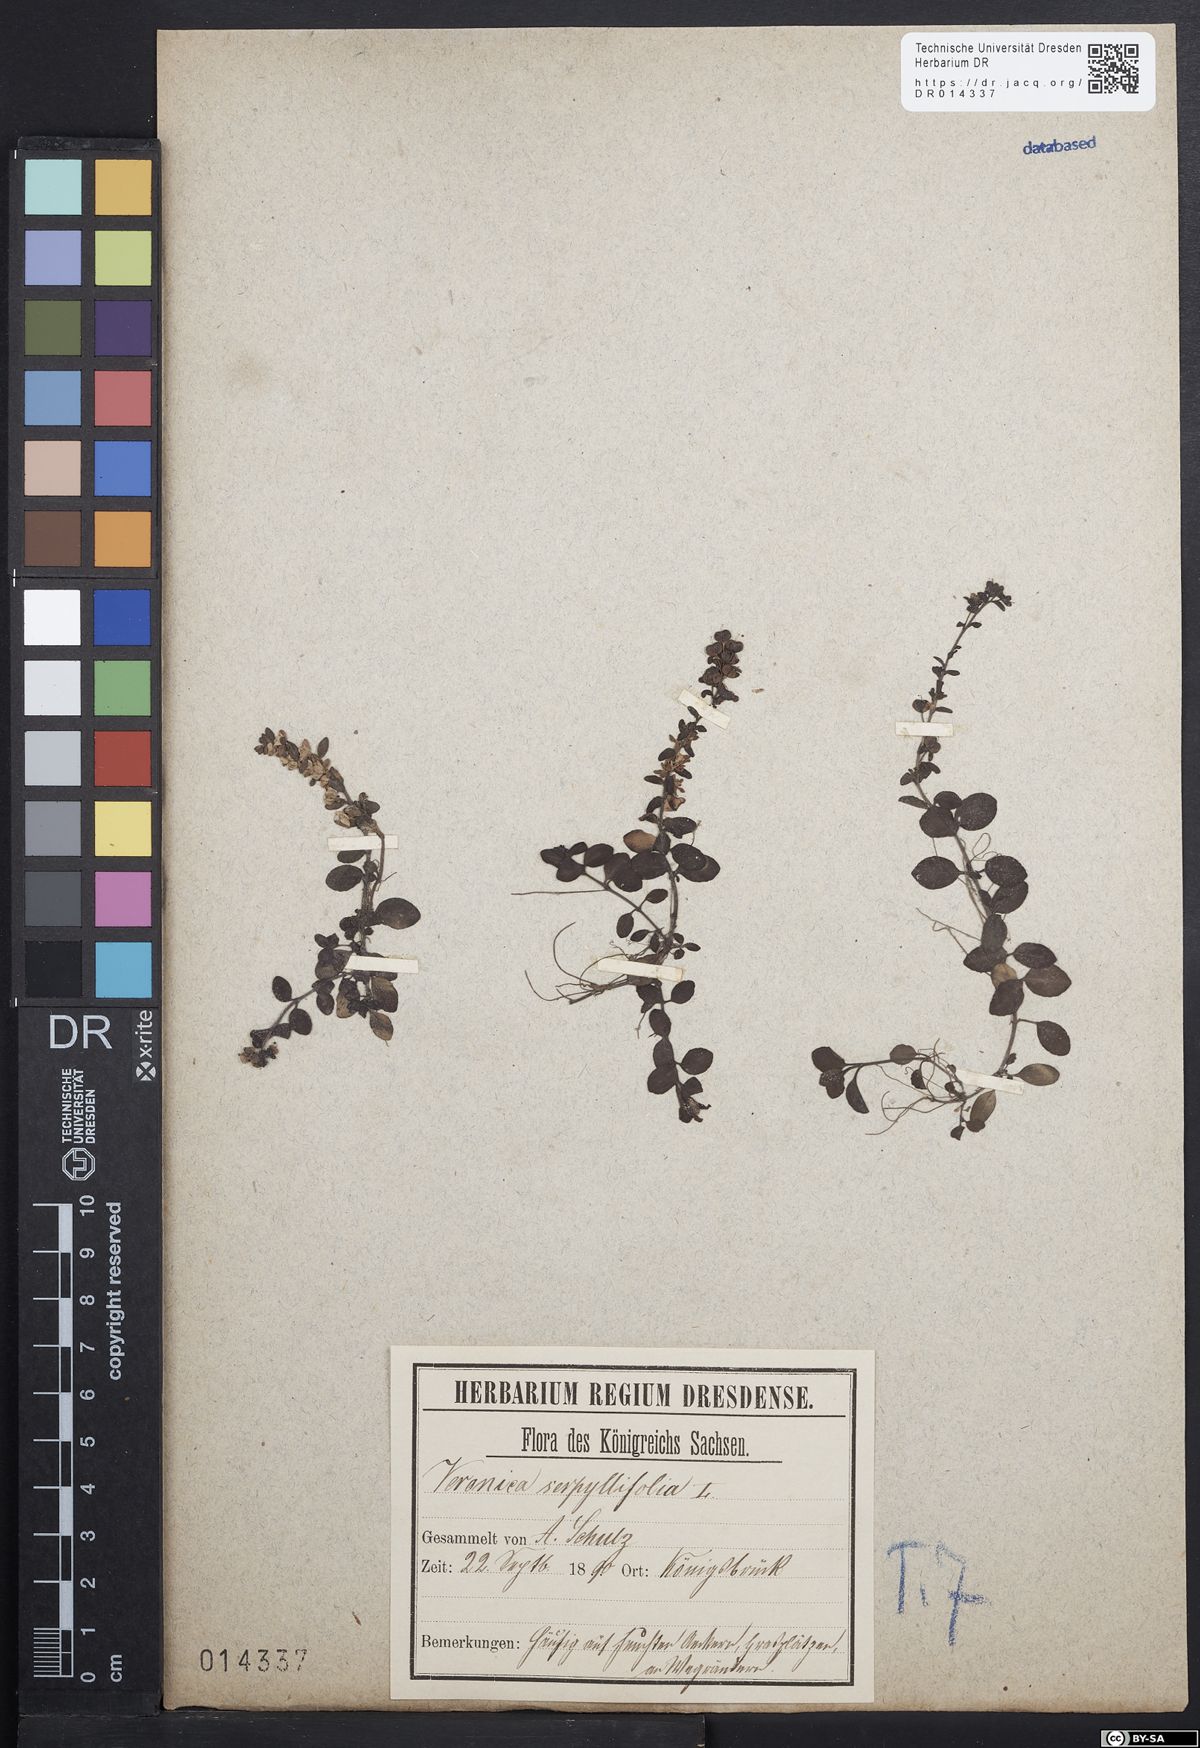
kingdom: Plantae
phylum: Tracheophyta
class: Magnoliopsida
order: Lamiales
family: Plantaginaceae
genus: Veronica
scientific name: Veronica serpyllifolia
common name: Thyme-leaved speedwell
